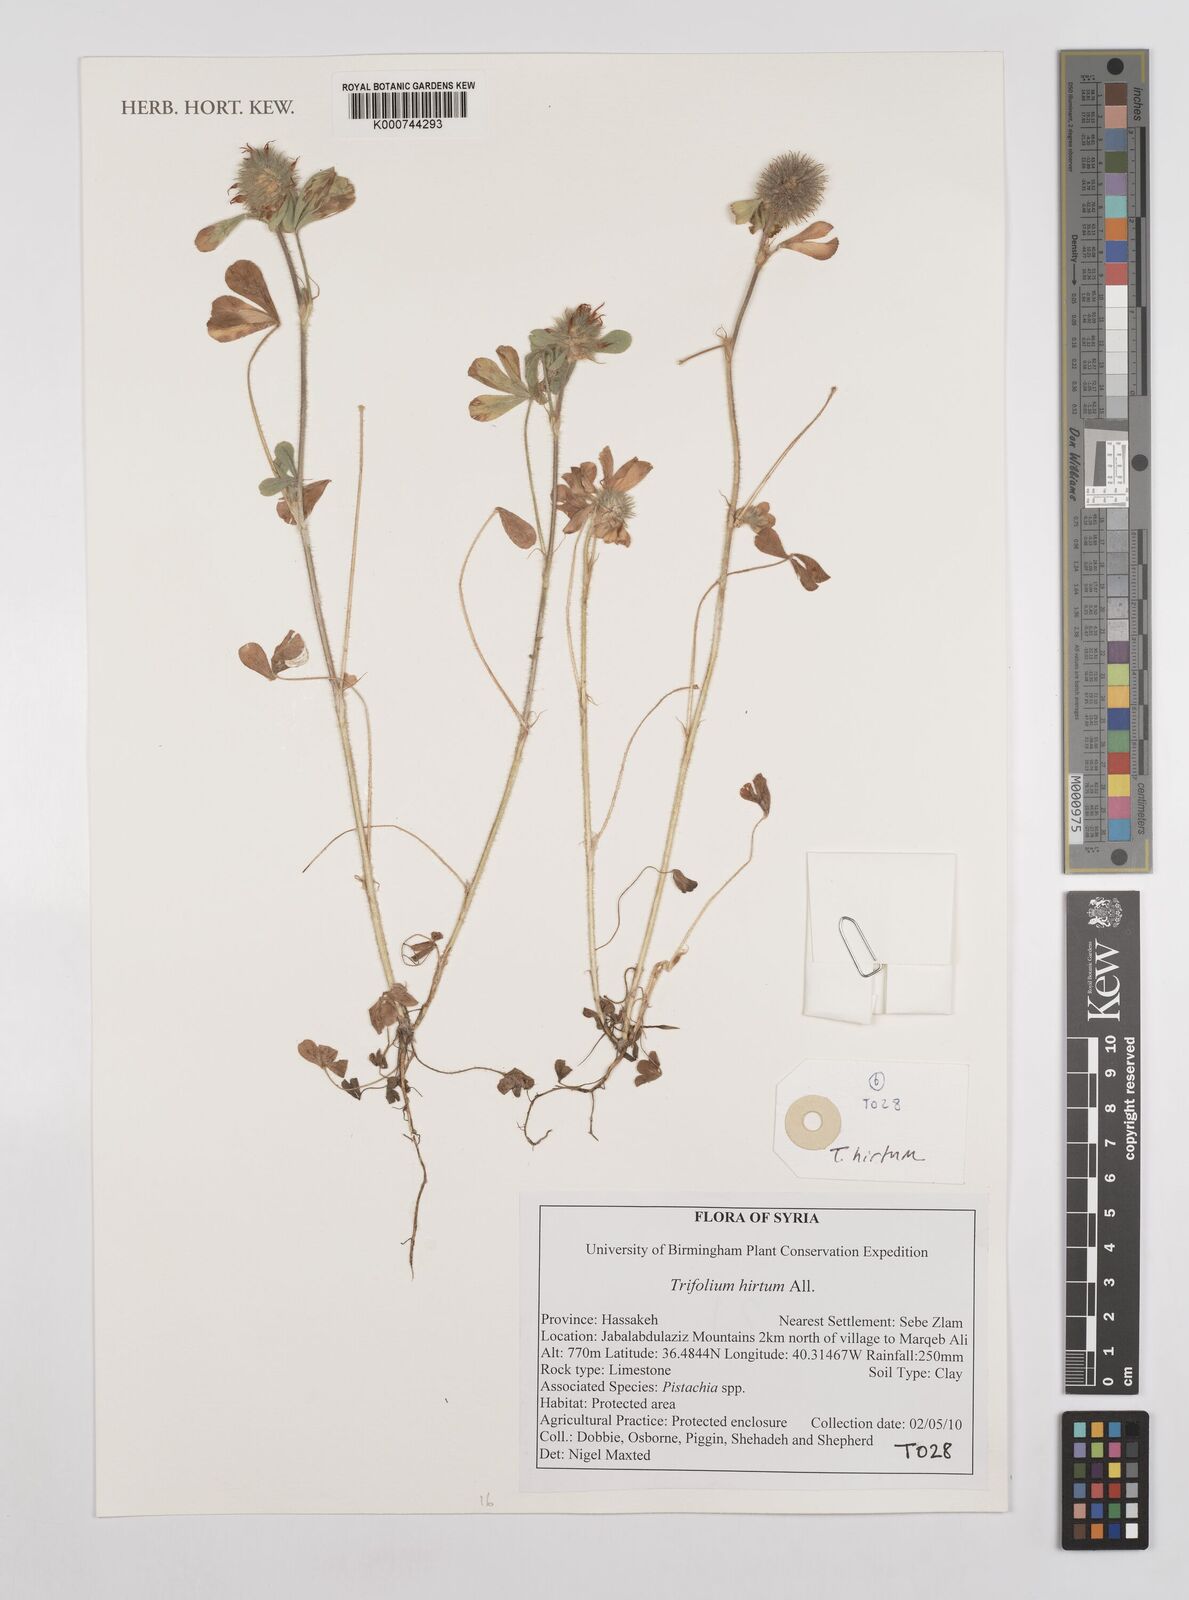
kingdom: Plantae
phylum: Tracheophyta
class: Magnoliopsida
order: Fabales
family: Fabaceae
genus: Trifolium
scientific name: Trifolium hirtum
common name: Rose clover
